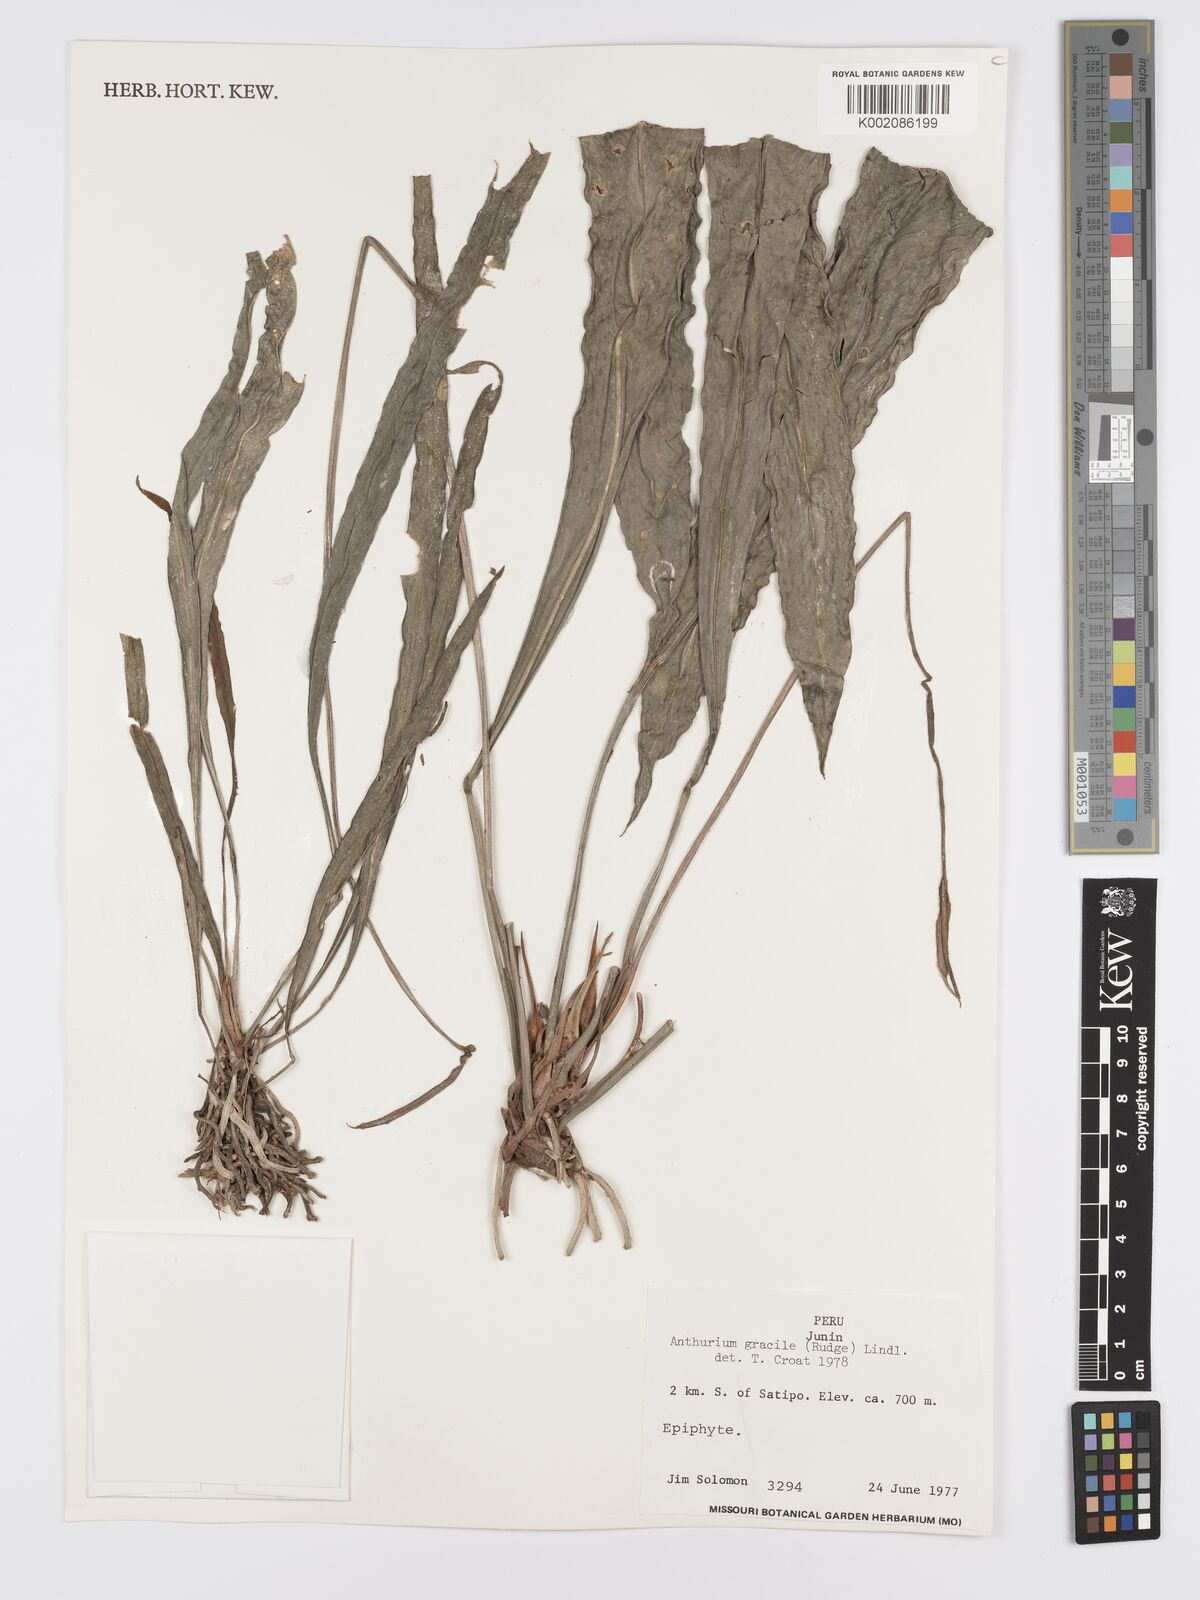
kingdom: Plantae
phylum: Tracheophyta
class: Liliopsida
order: Alismatales
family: Araceae
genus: Anthurium
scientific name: Anthurium gracile
